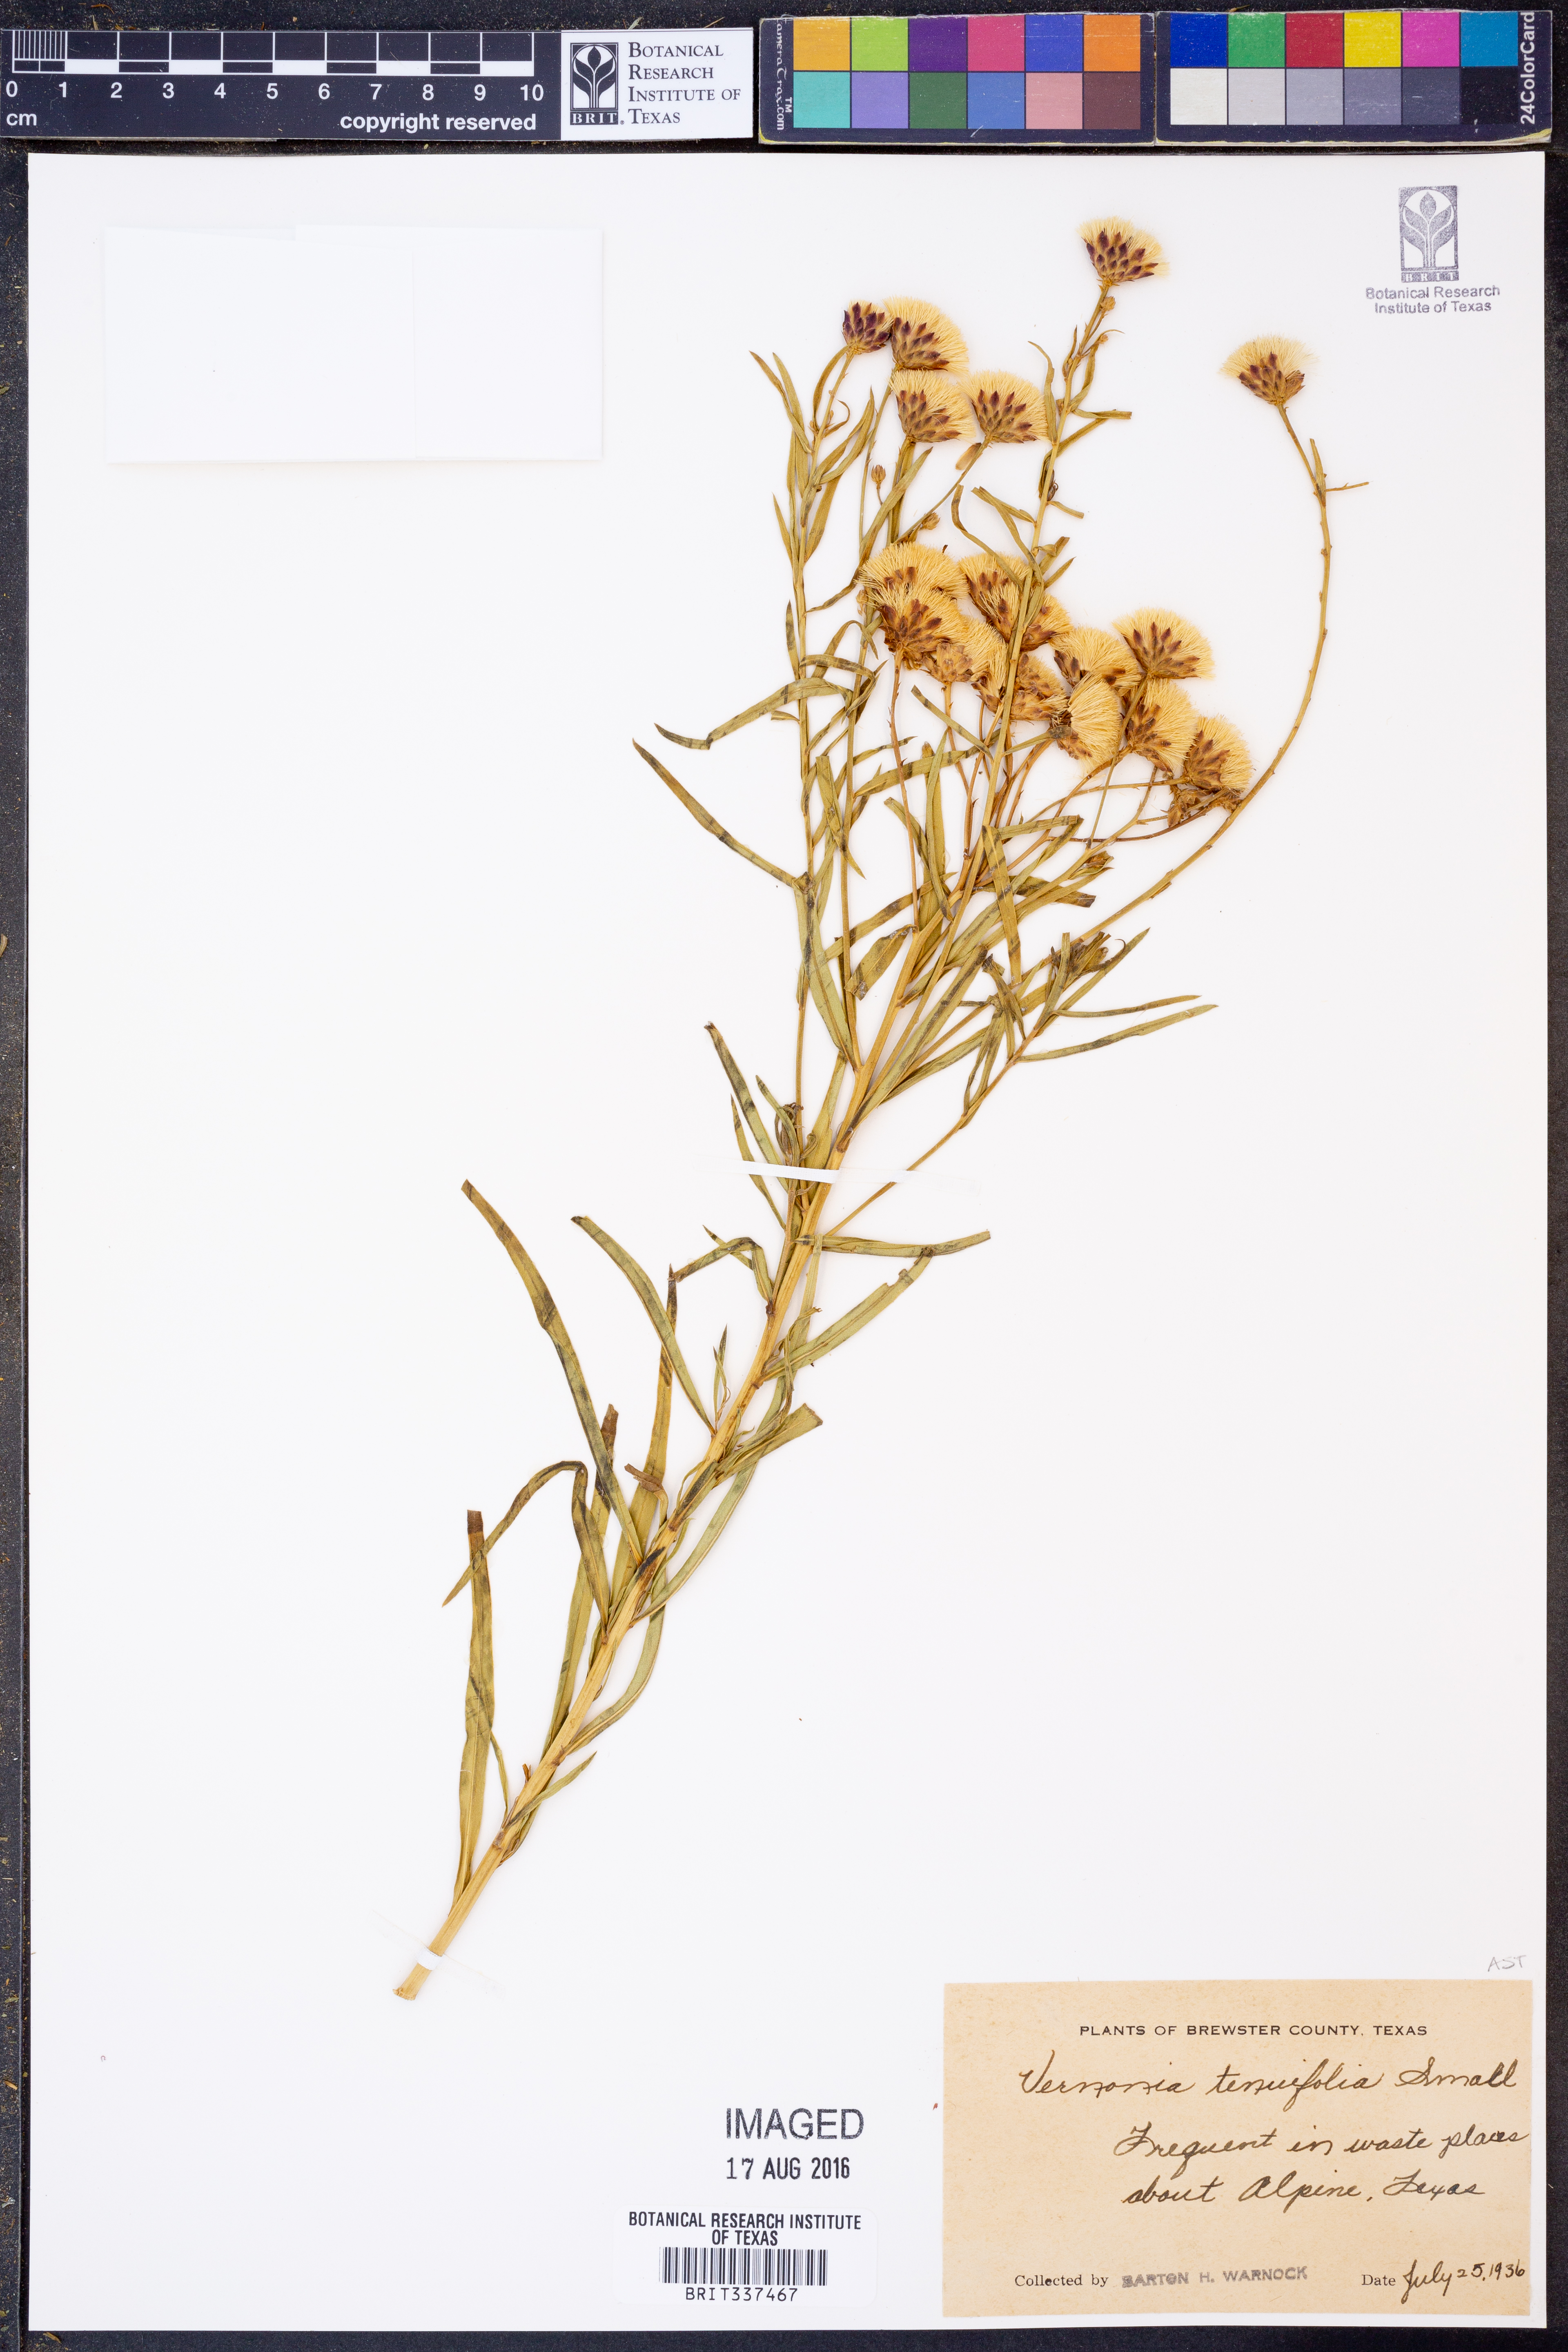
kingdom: Plantae
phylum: Tracheophyta
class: Magnoliopsida
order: Asterales
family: Asteraceae
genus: Vernonia
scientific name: Vernonia marginata
